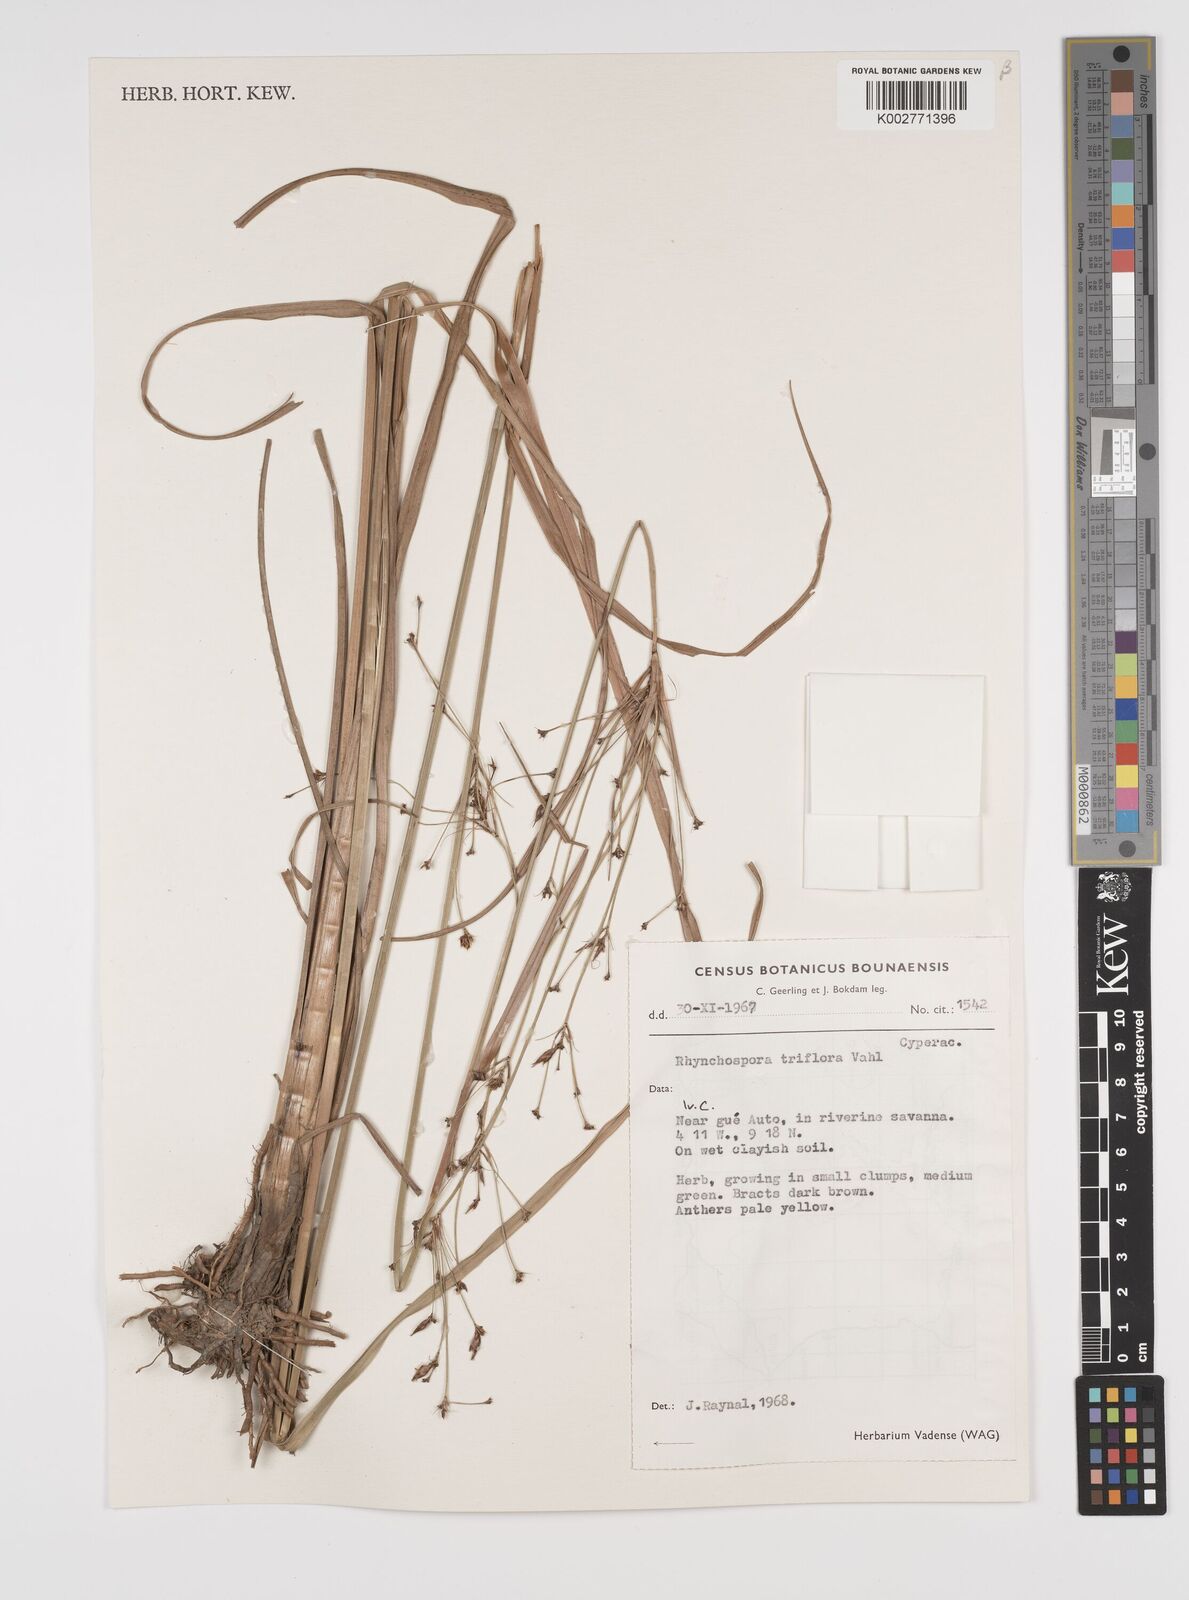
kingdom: Plantae
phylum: Tracheophyta
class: Liliopsida
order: Poales
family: Cyperaceae
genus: Rhynchospora
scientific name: Rhynchospora triflora
